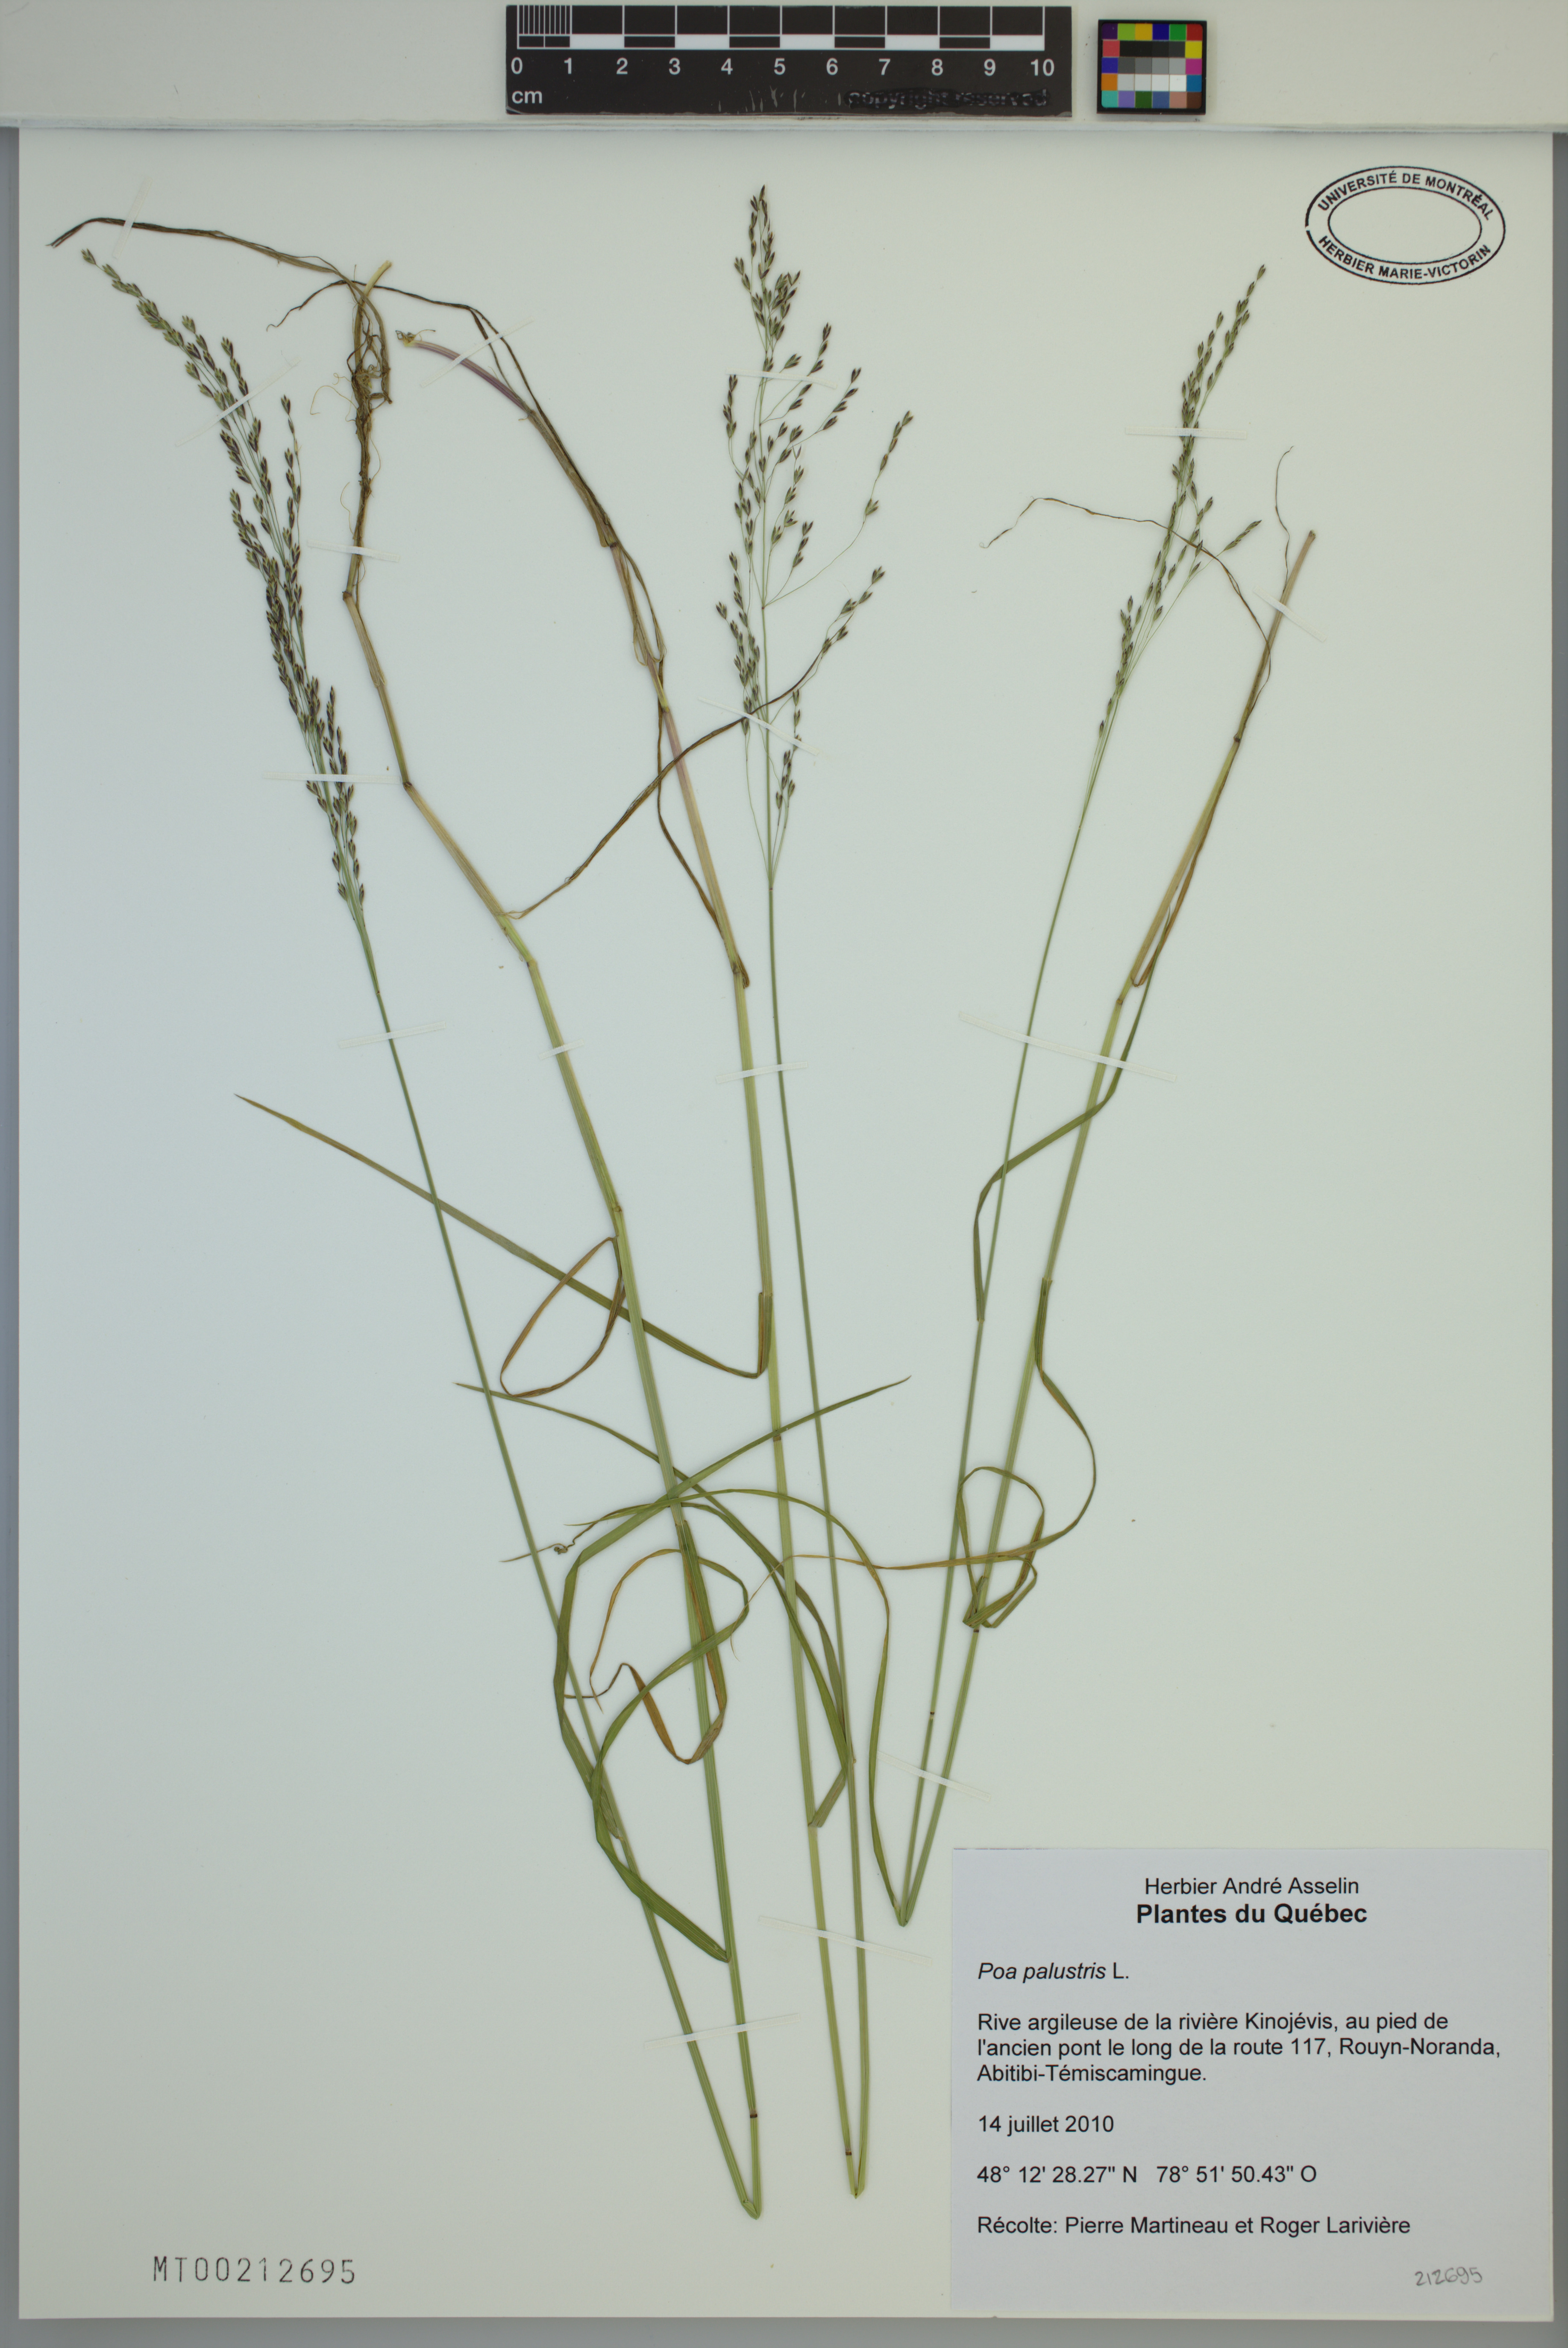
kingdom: Plantae
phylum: Tracheophyta
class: Liliopsida
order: Poales
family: Poaceae
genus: Poa
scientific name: Poa palustris
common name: Swamp meadow-grass
